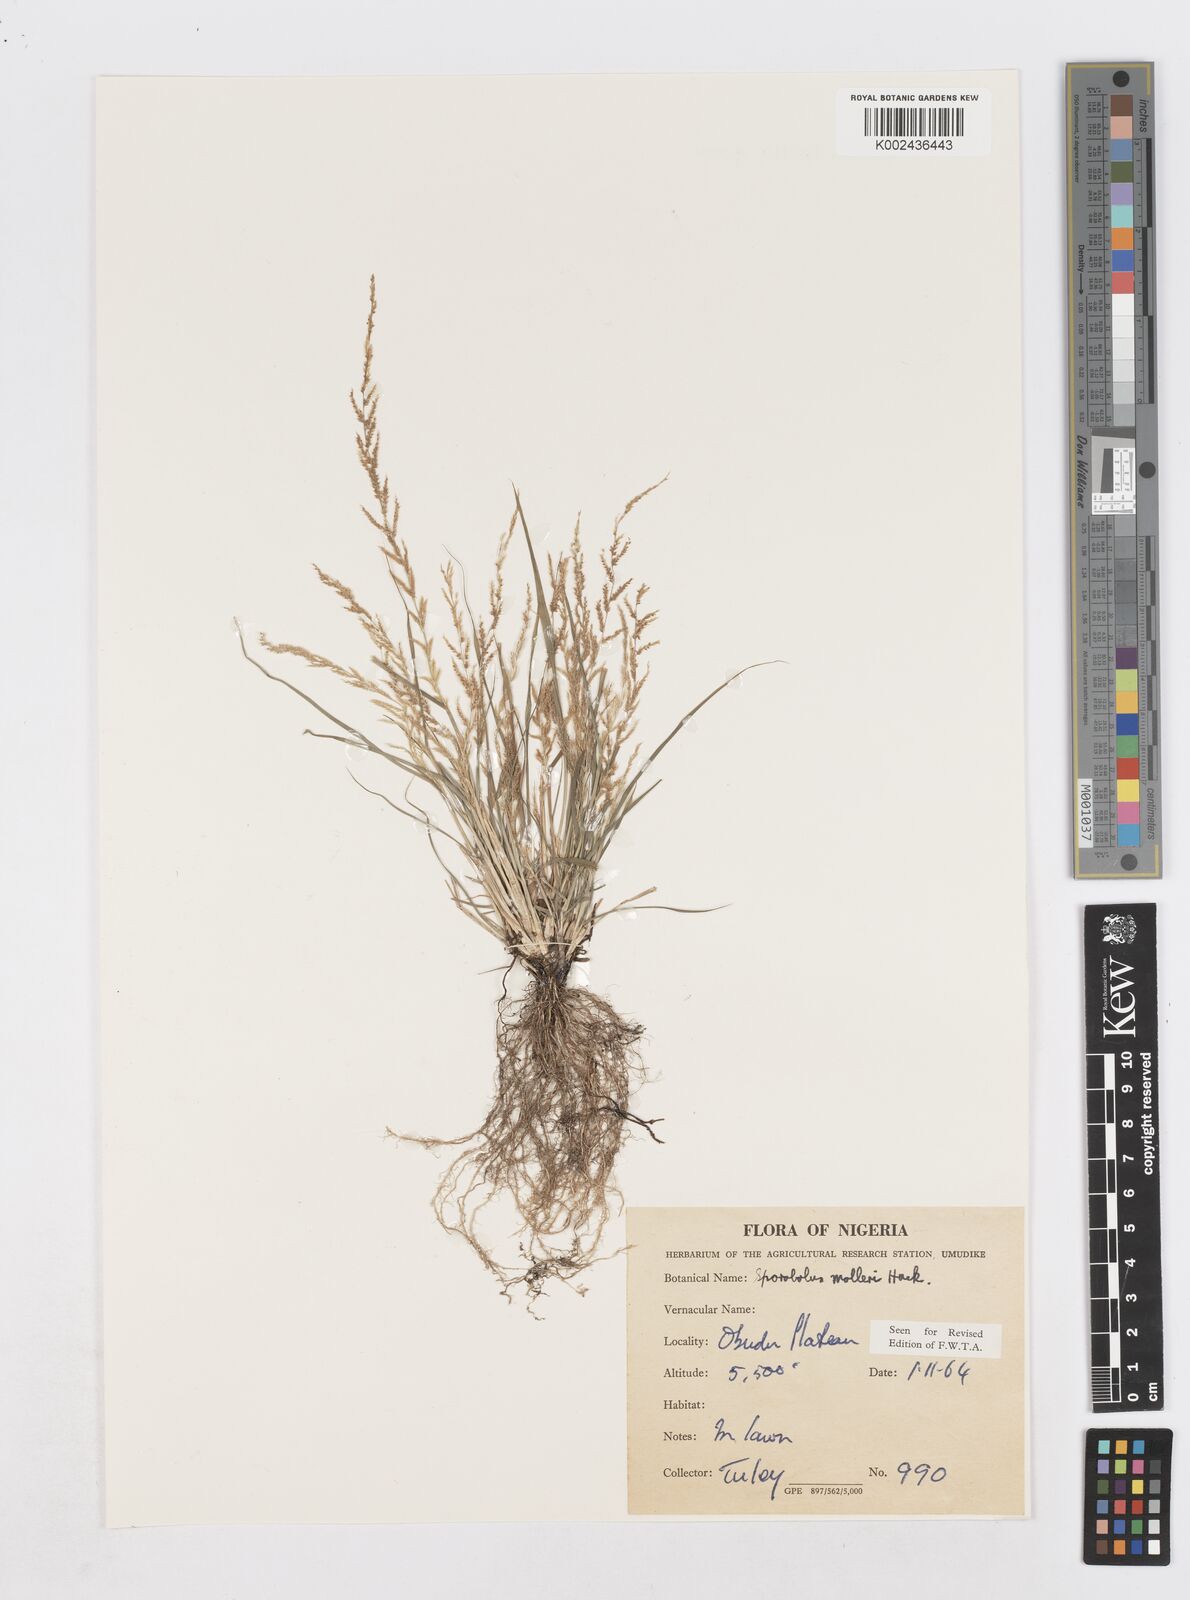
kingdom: Plantae
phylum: Tracheophyta
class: Liliopsida
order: Poales
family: Poaceae
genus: Sporobolus
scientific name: Sporobolus molleri
